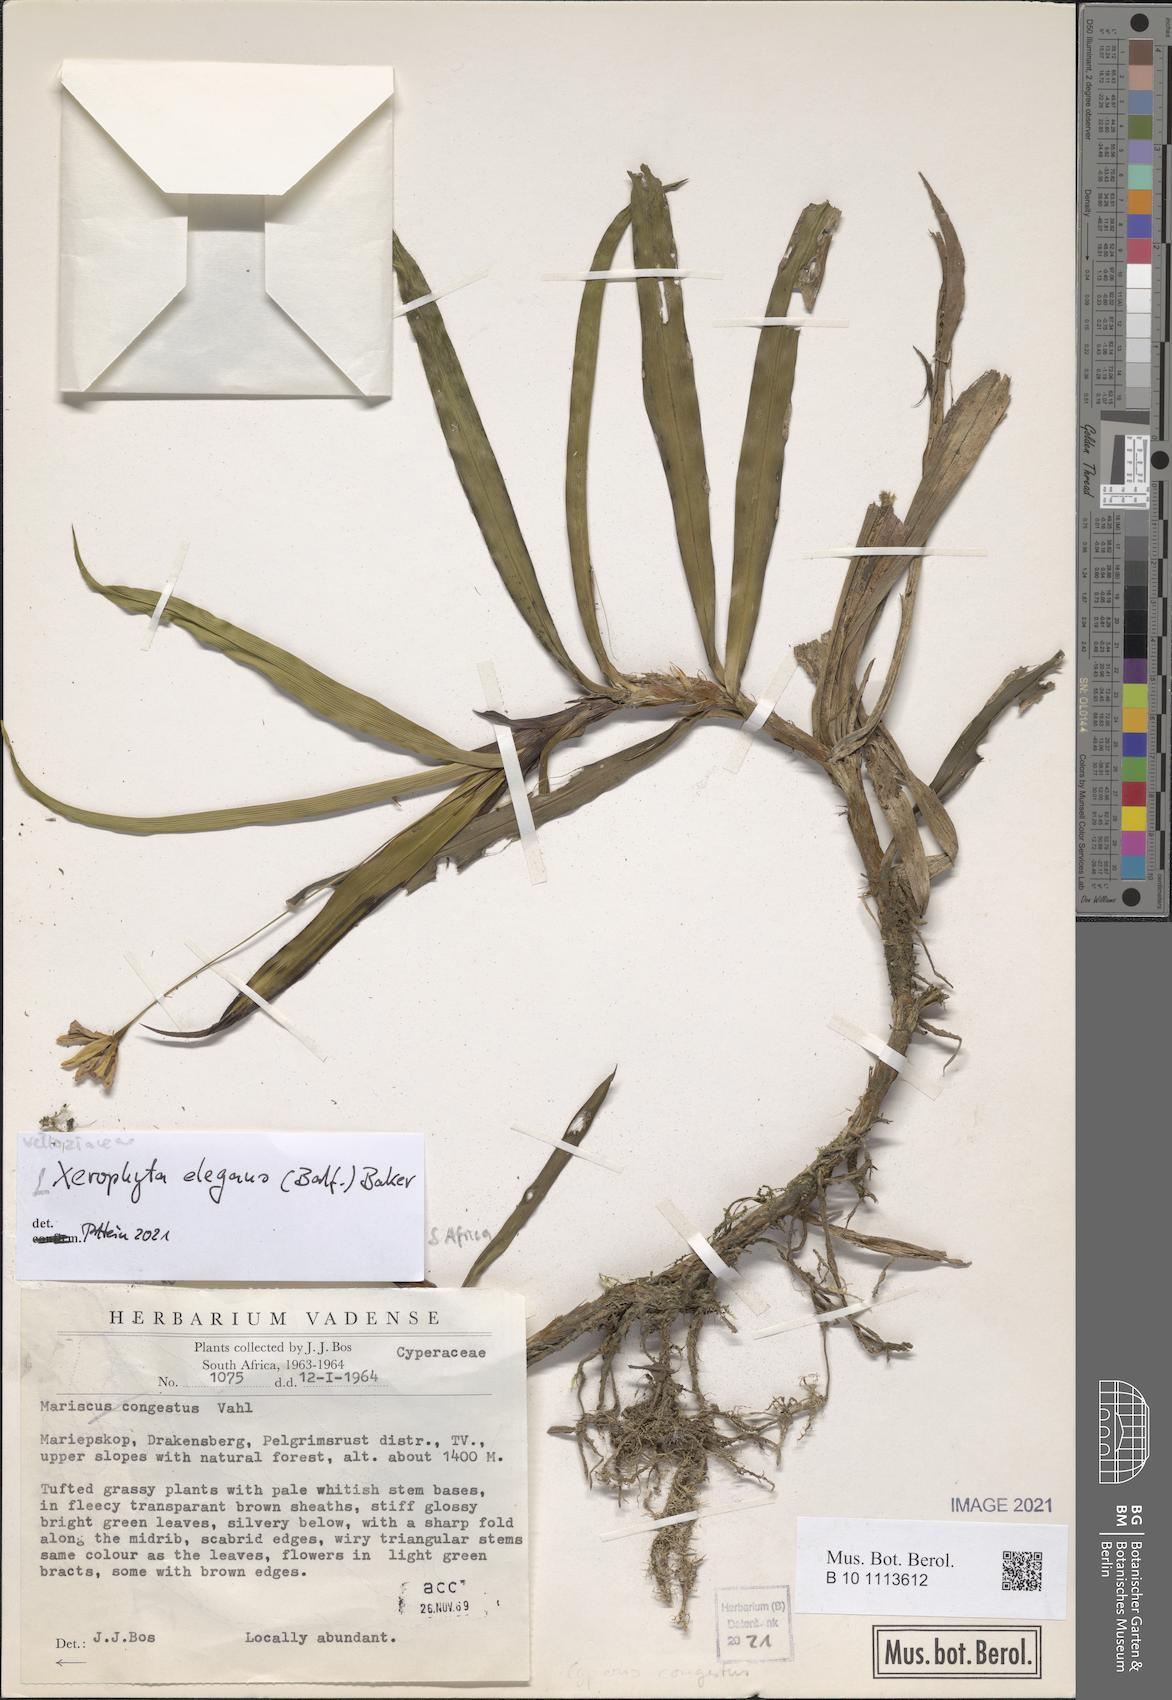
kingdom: Plantae
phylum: Tracheophyta
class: Liliopsida
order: Pandanales
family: Velloziaceae
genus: Xerophyta
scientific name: Xerophyta elegans
